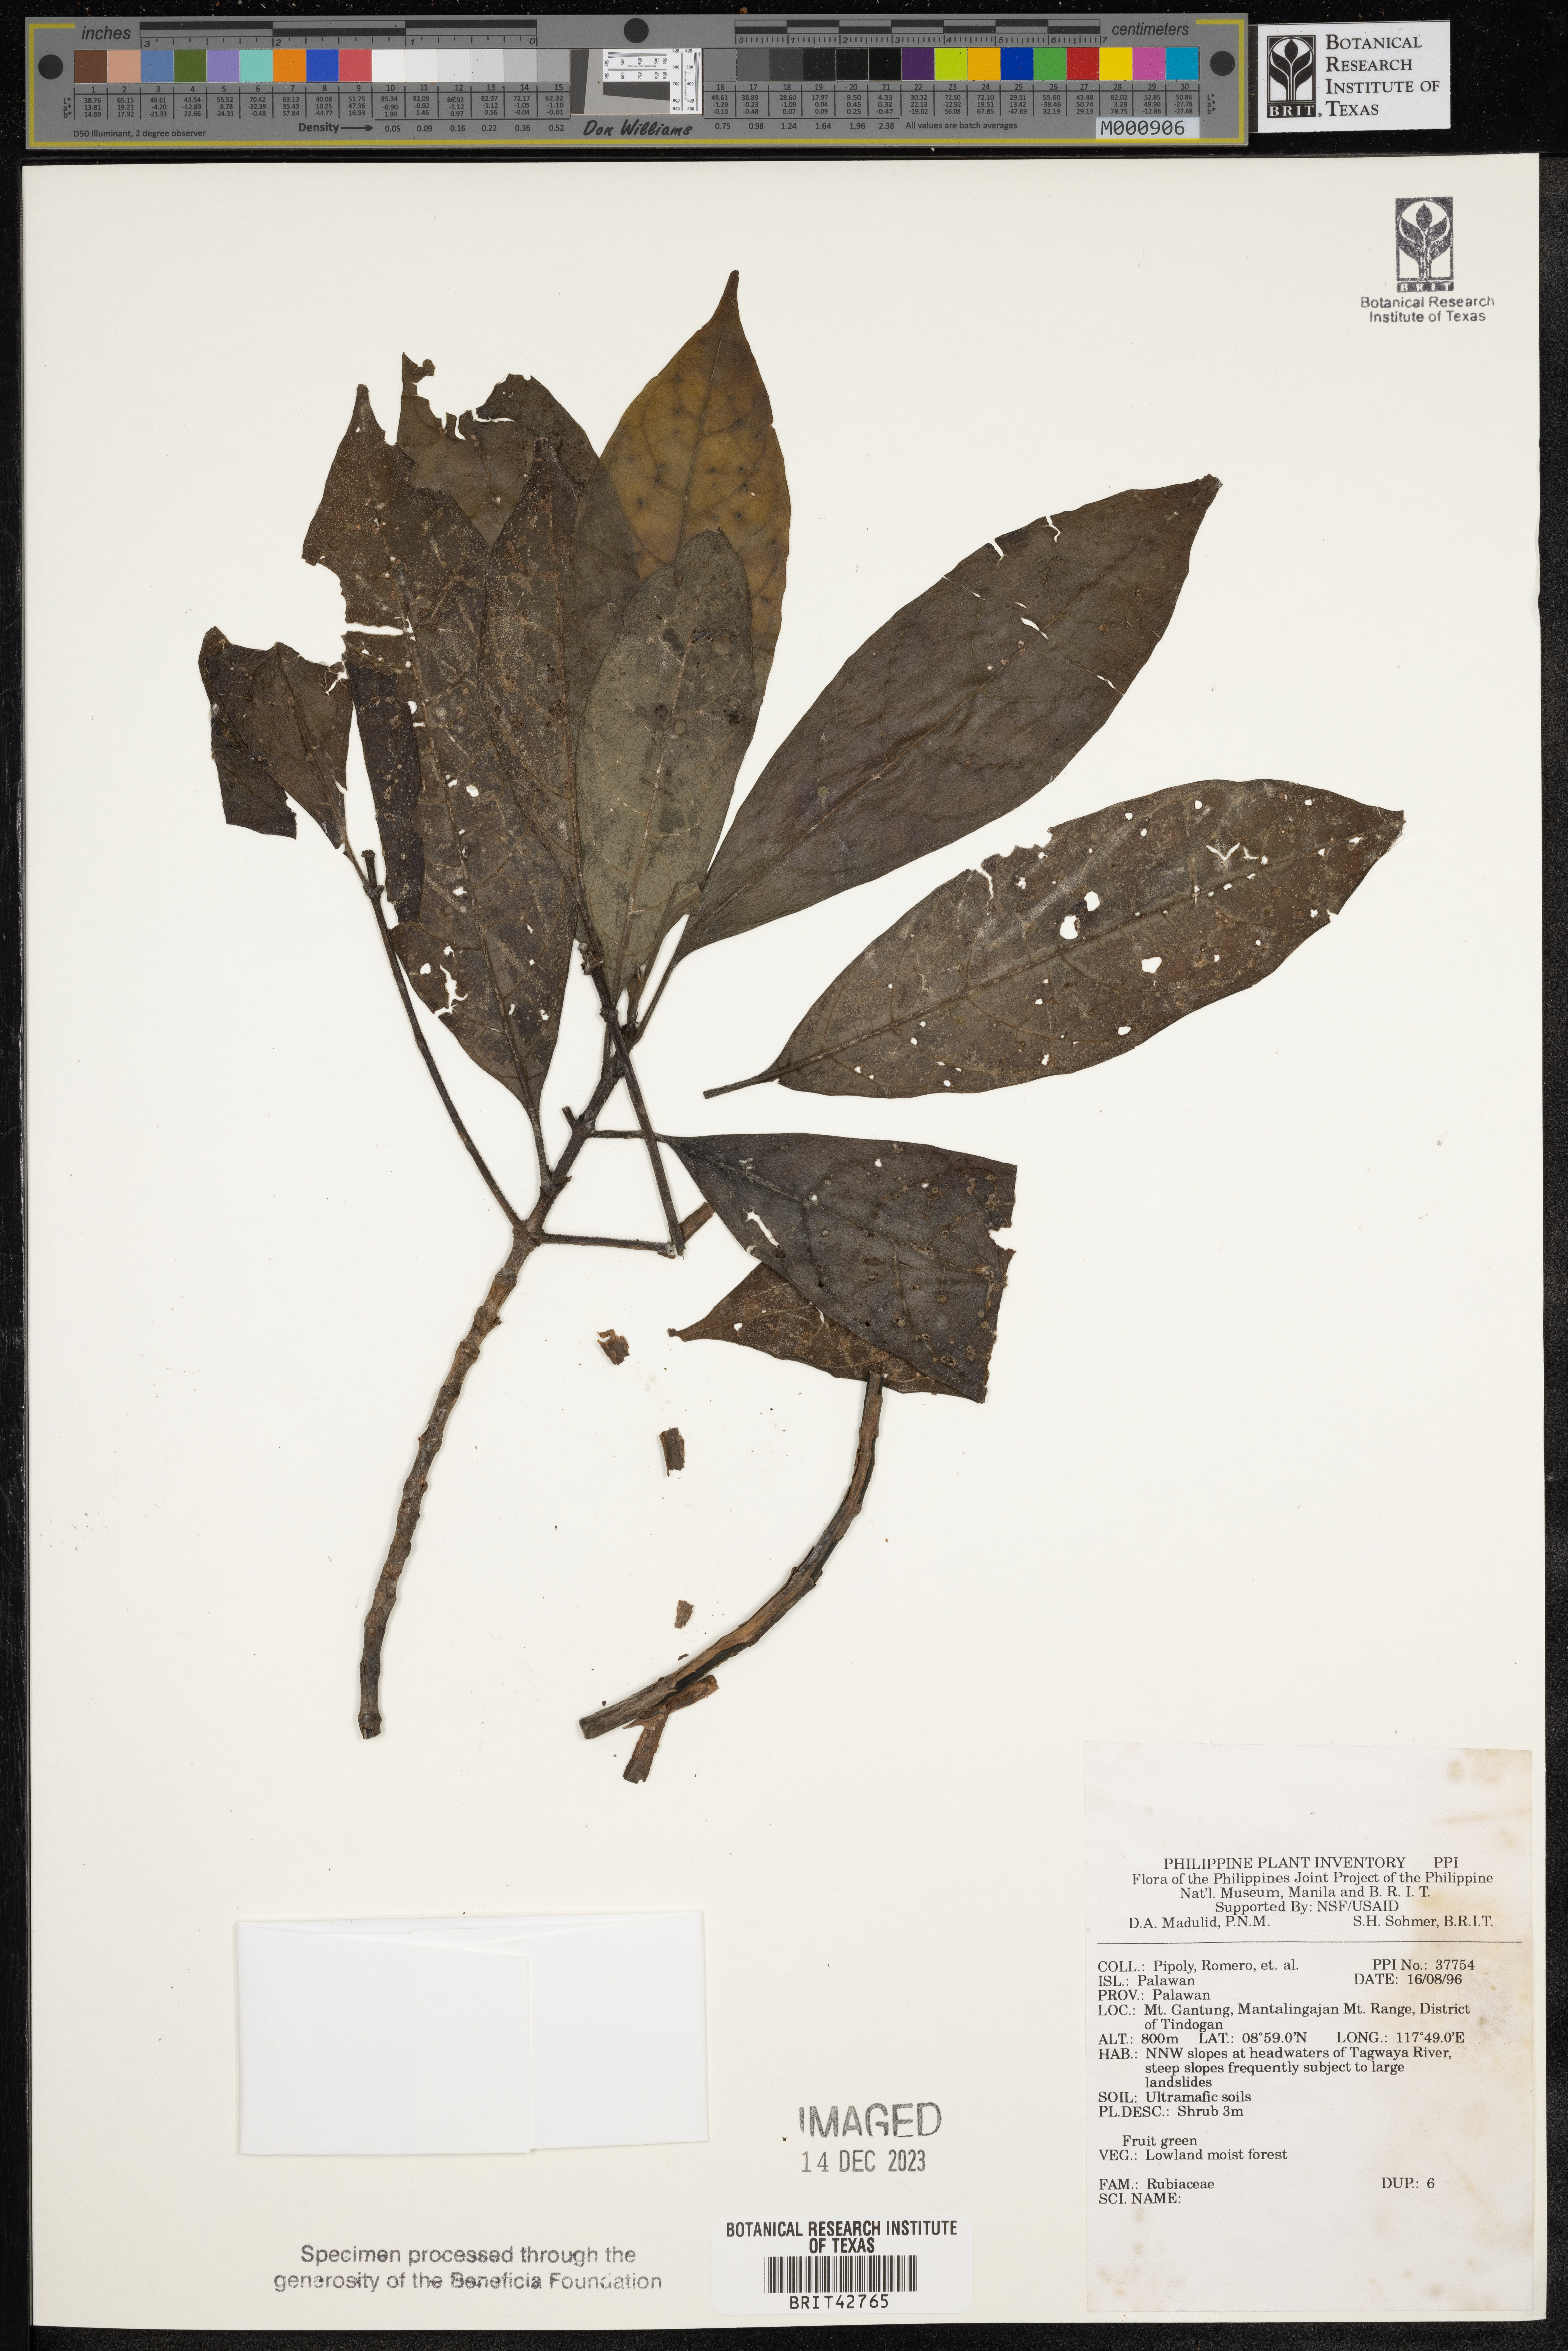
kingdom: Plantae
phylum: Tracheophyta
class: Magnoliopsida
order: Gentianales
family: Rubiaceae
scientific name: Rubiaceae
